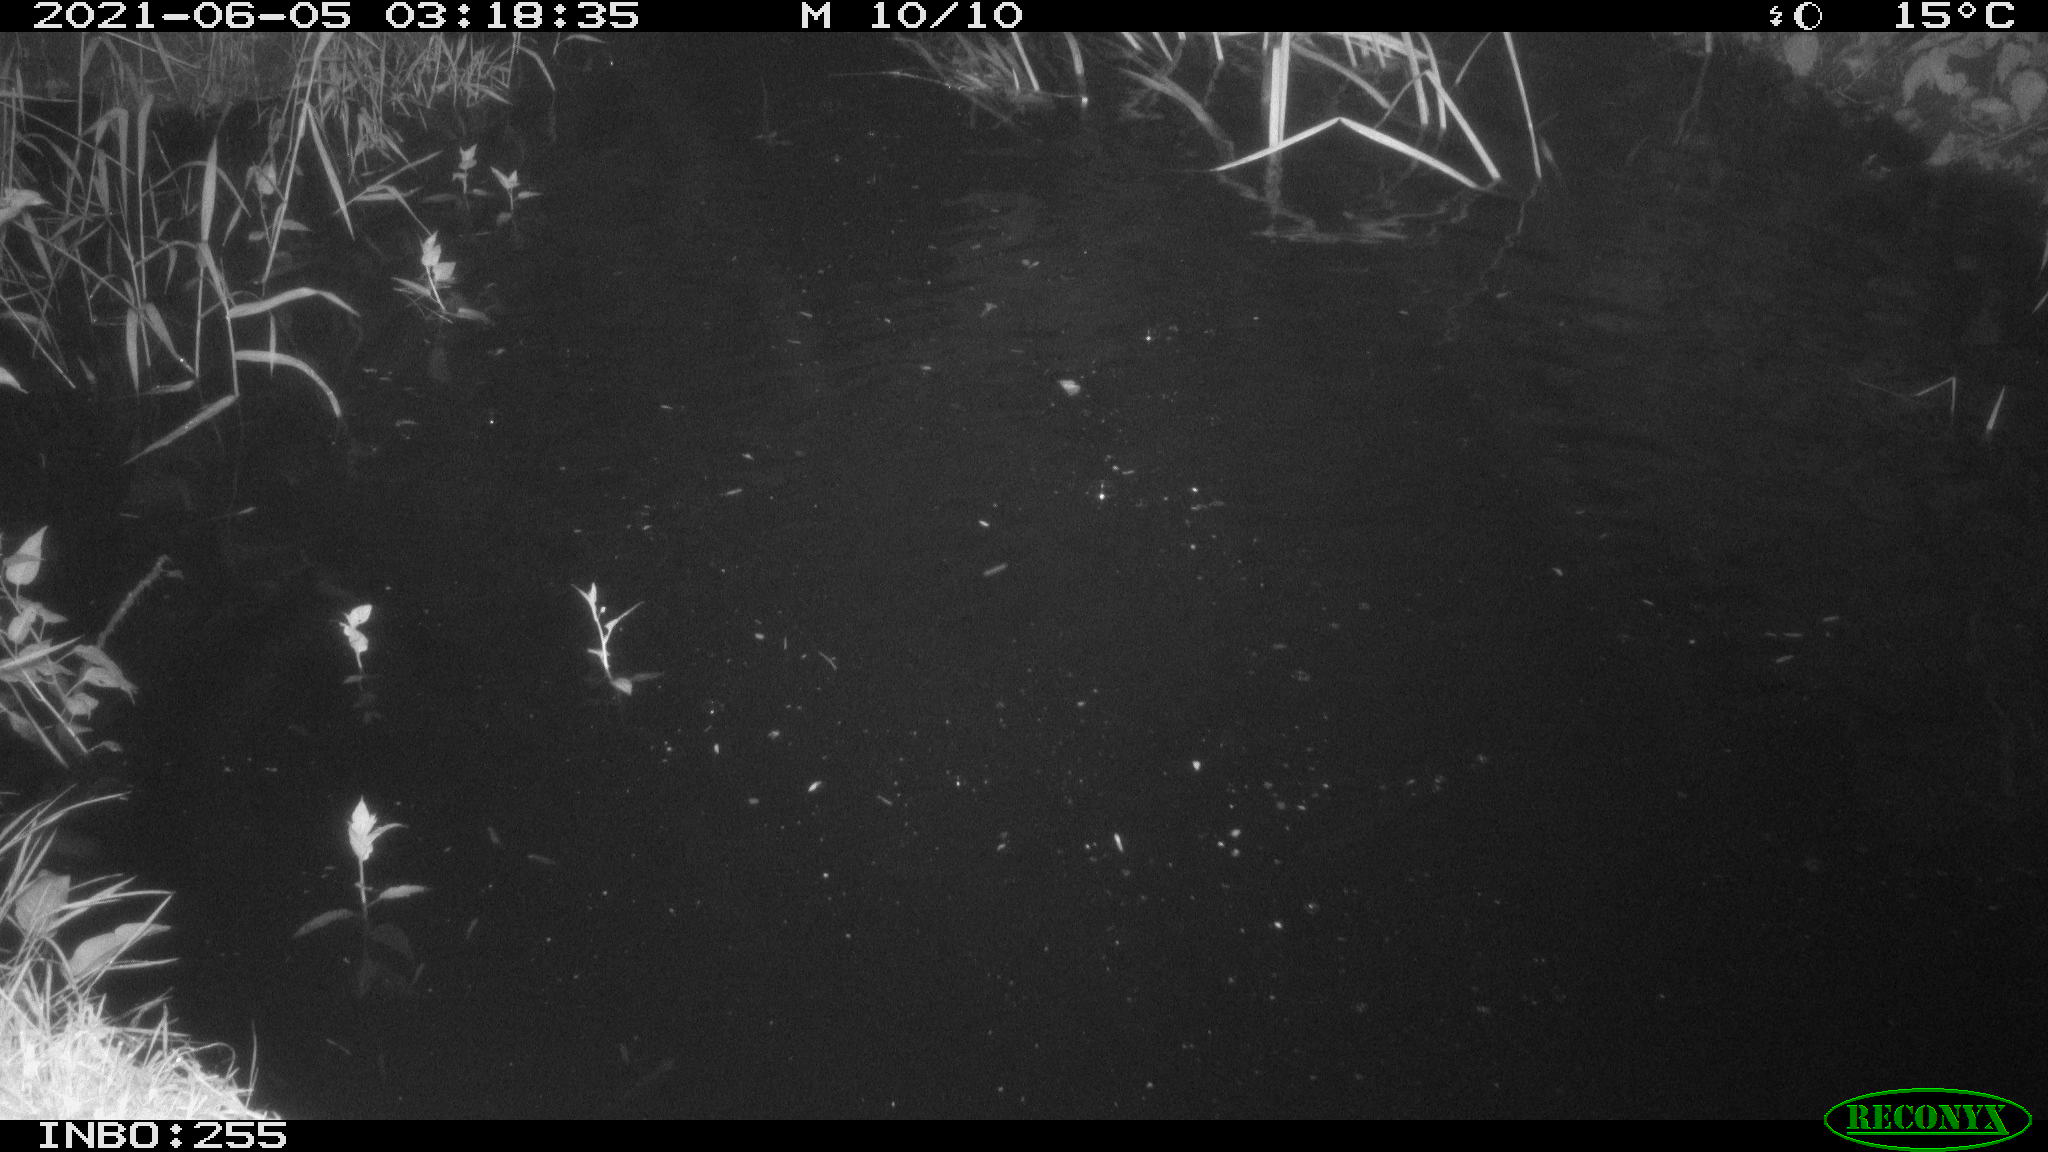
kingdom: Animalia
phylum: Chordata
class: Aves
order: Anseriformes
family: Anatidae
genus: Anas
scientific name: Anas platyrhynchos
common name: Mallard
